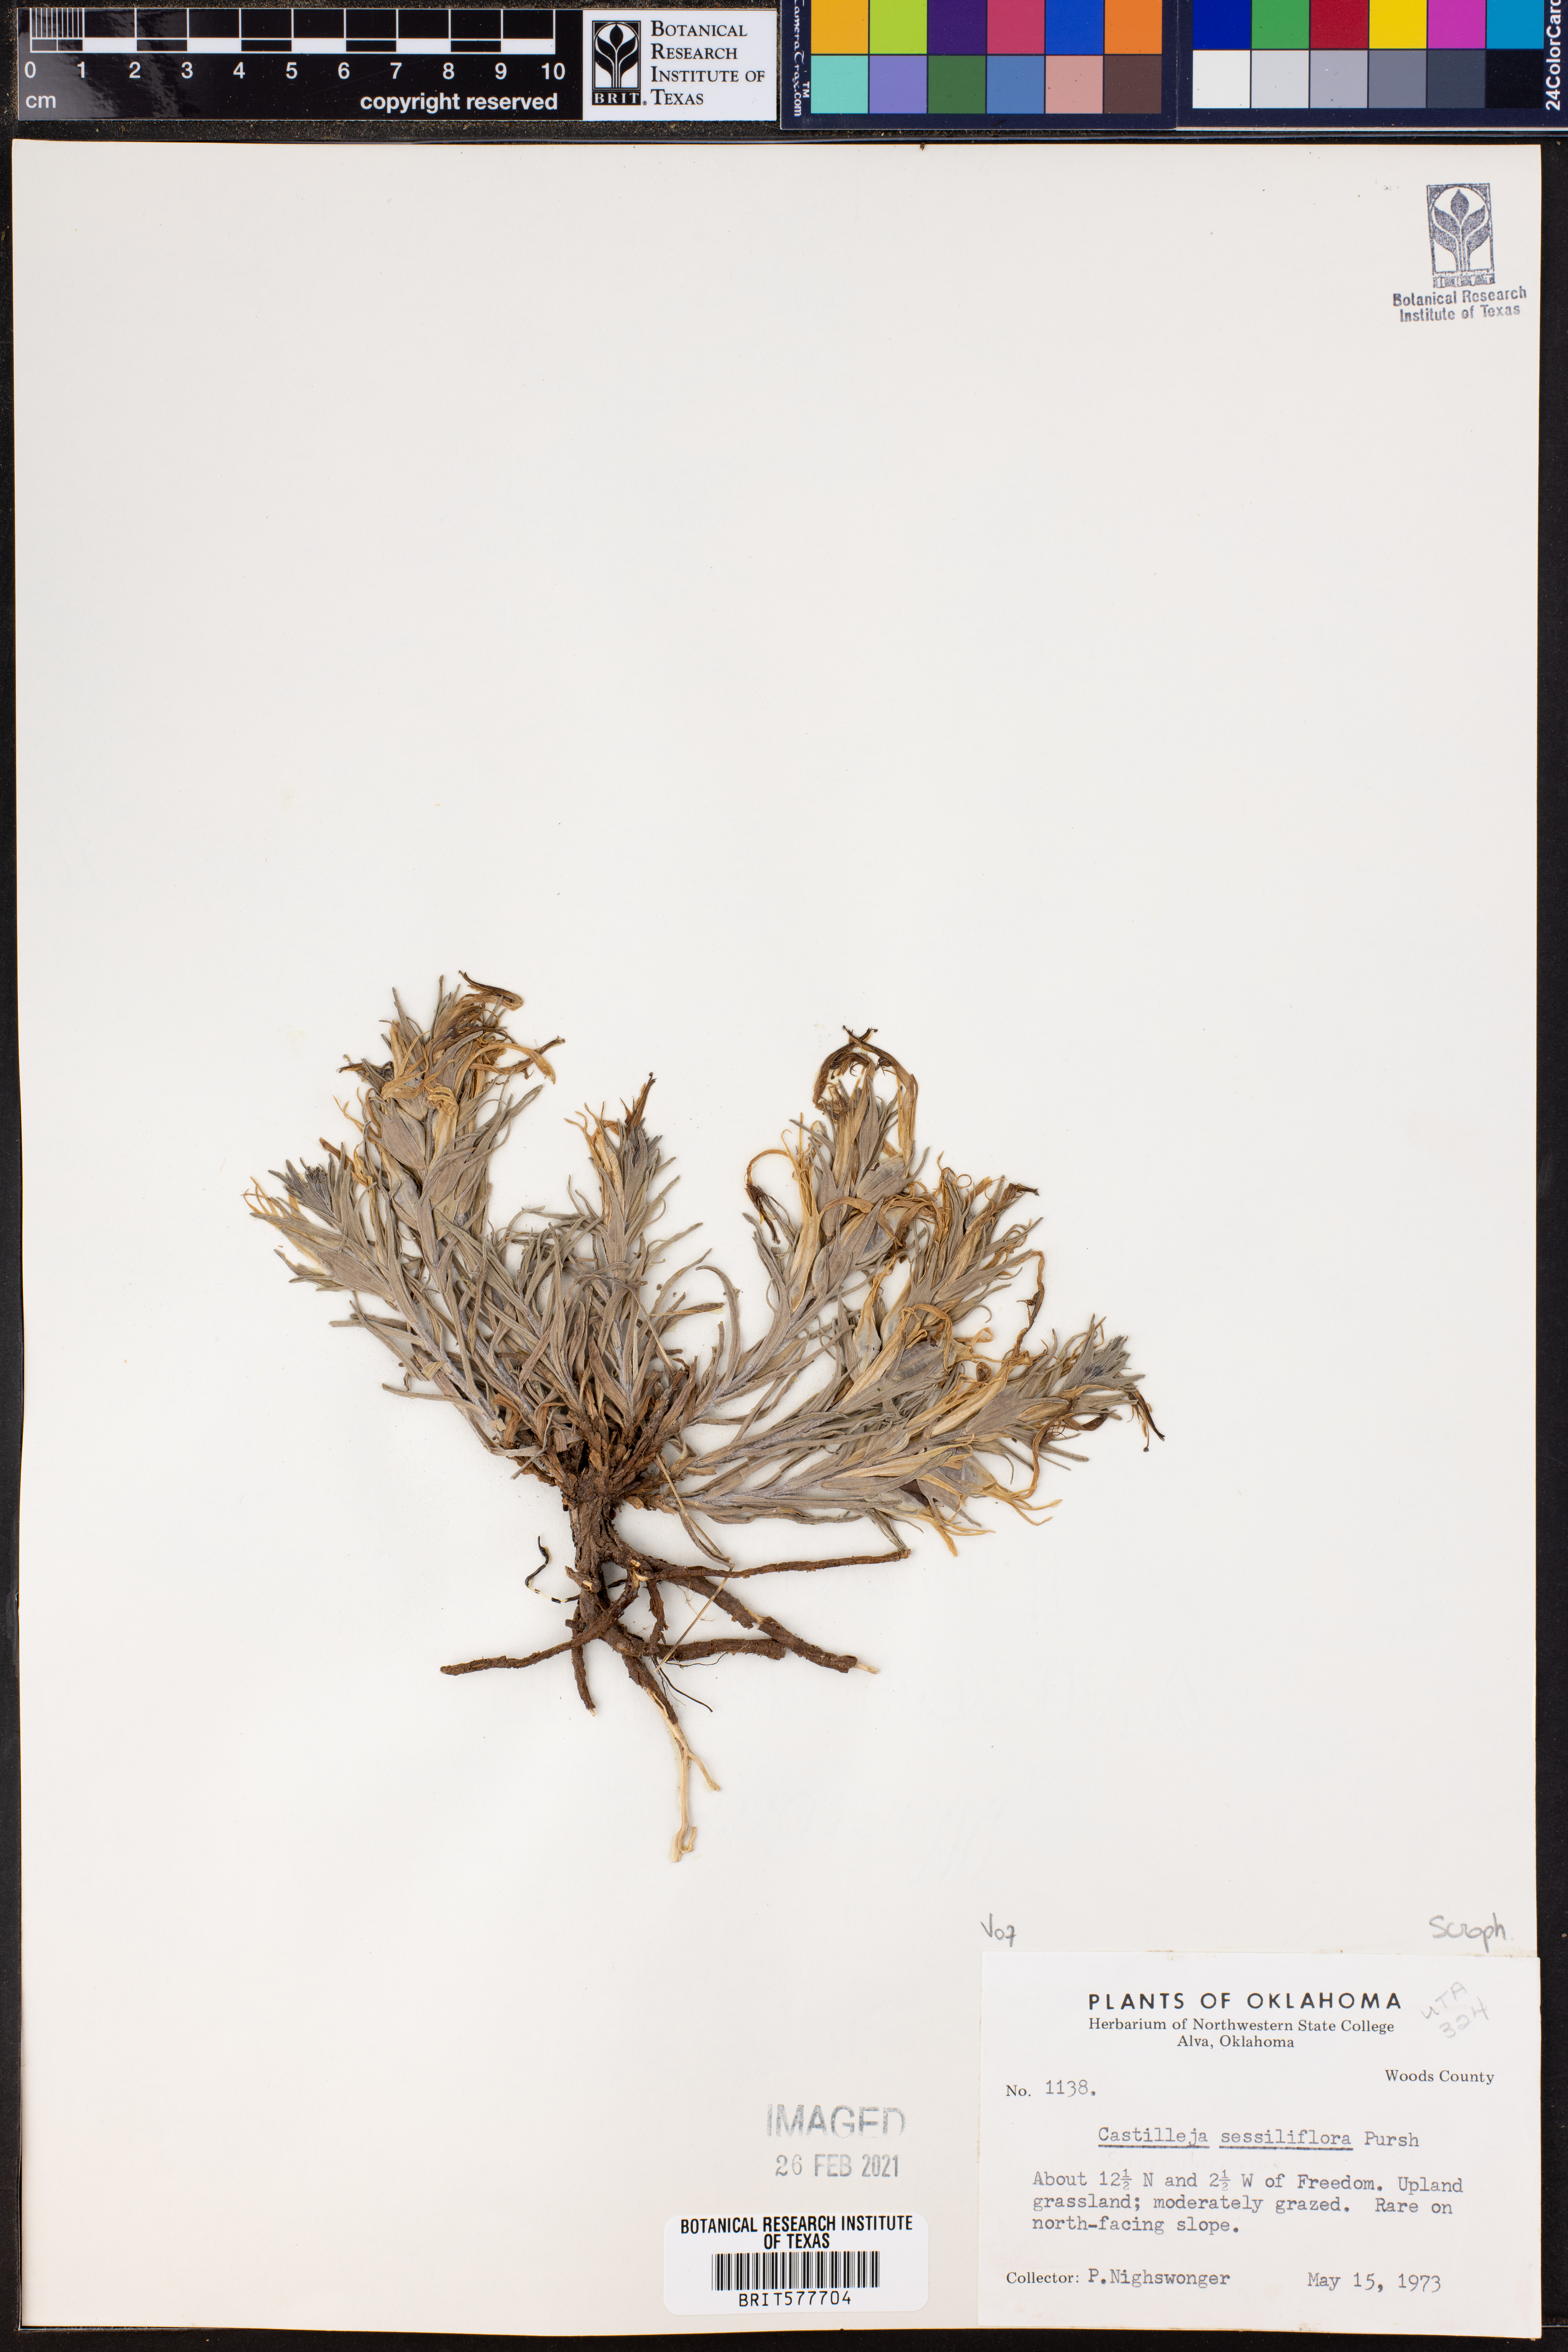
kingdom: Plantae
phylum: Tracheophyta
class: Magnoliopsida
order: Lamiales
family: Orobanchaceae
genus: Castilleja
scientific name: Castilleja sessiliflora
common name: Downy paintbrush
